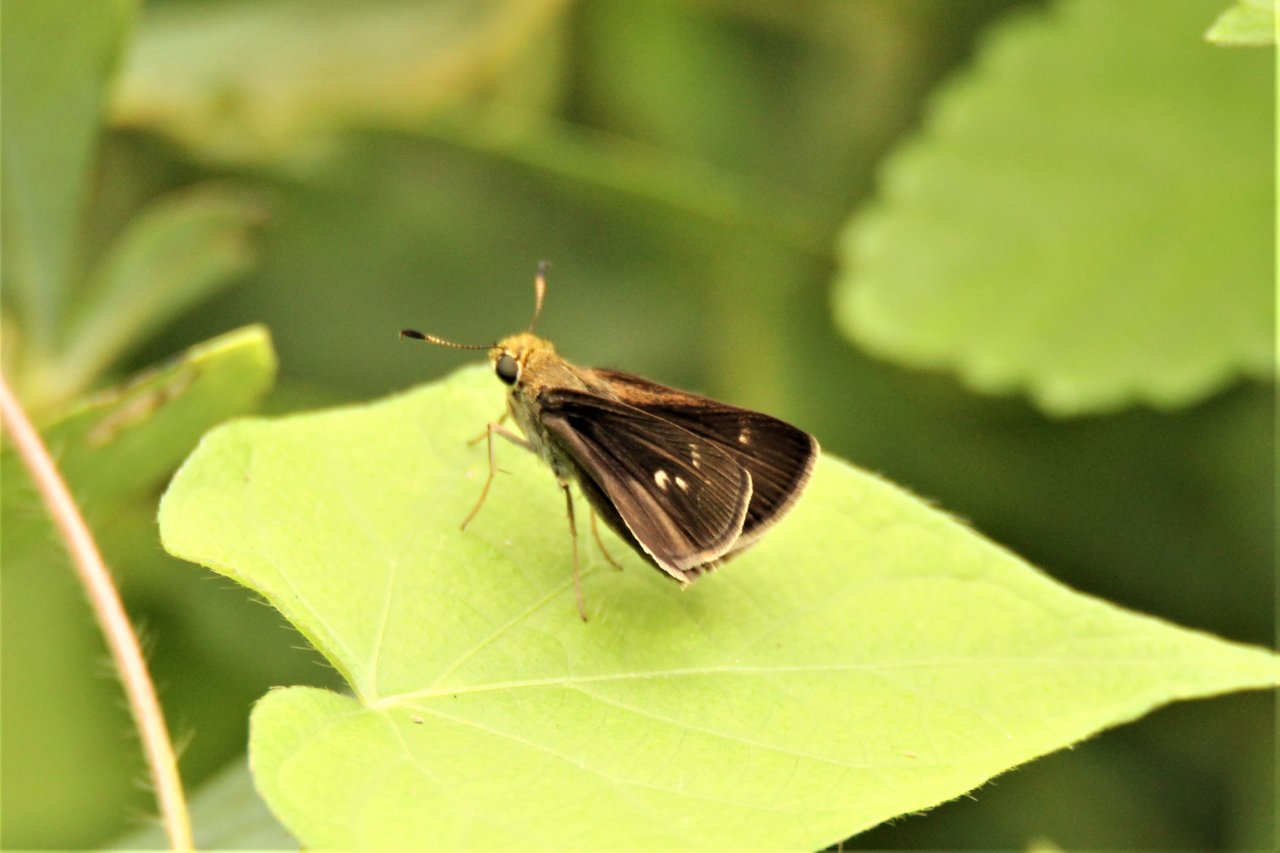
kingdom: Animalia
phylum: Arthropoda
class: Insecta
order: Lepidoptera
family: Hesperiidae
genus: Vernia
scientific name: Vernia verna
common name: Little Glassywing
